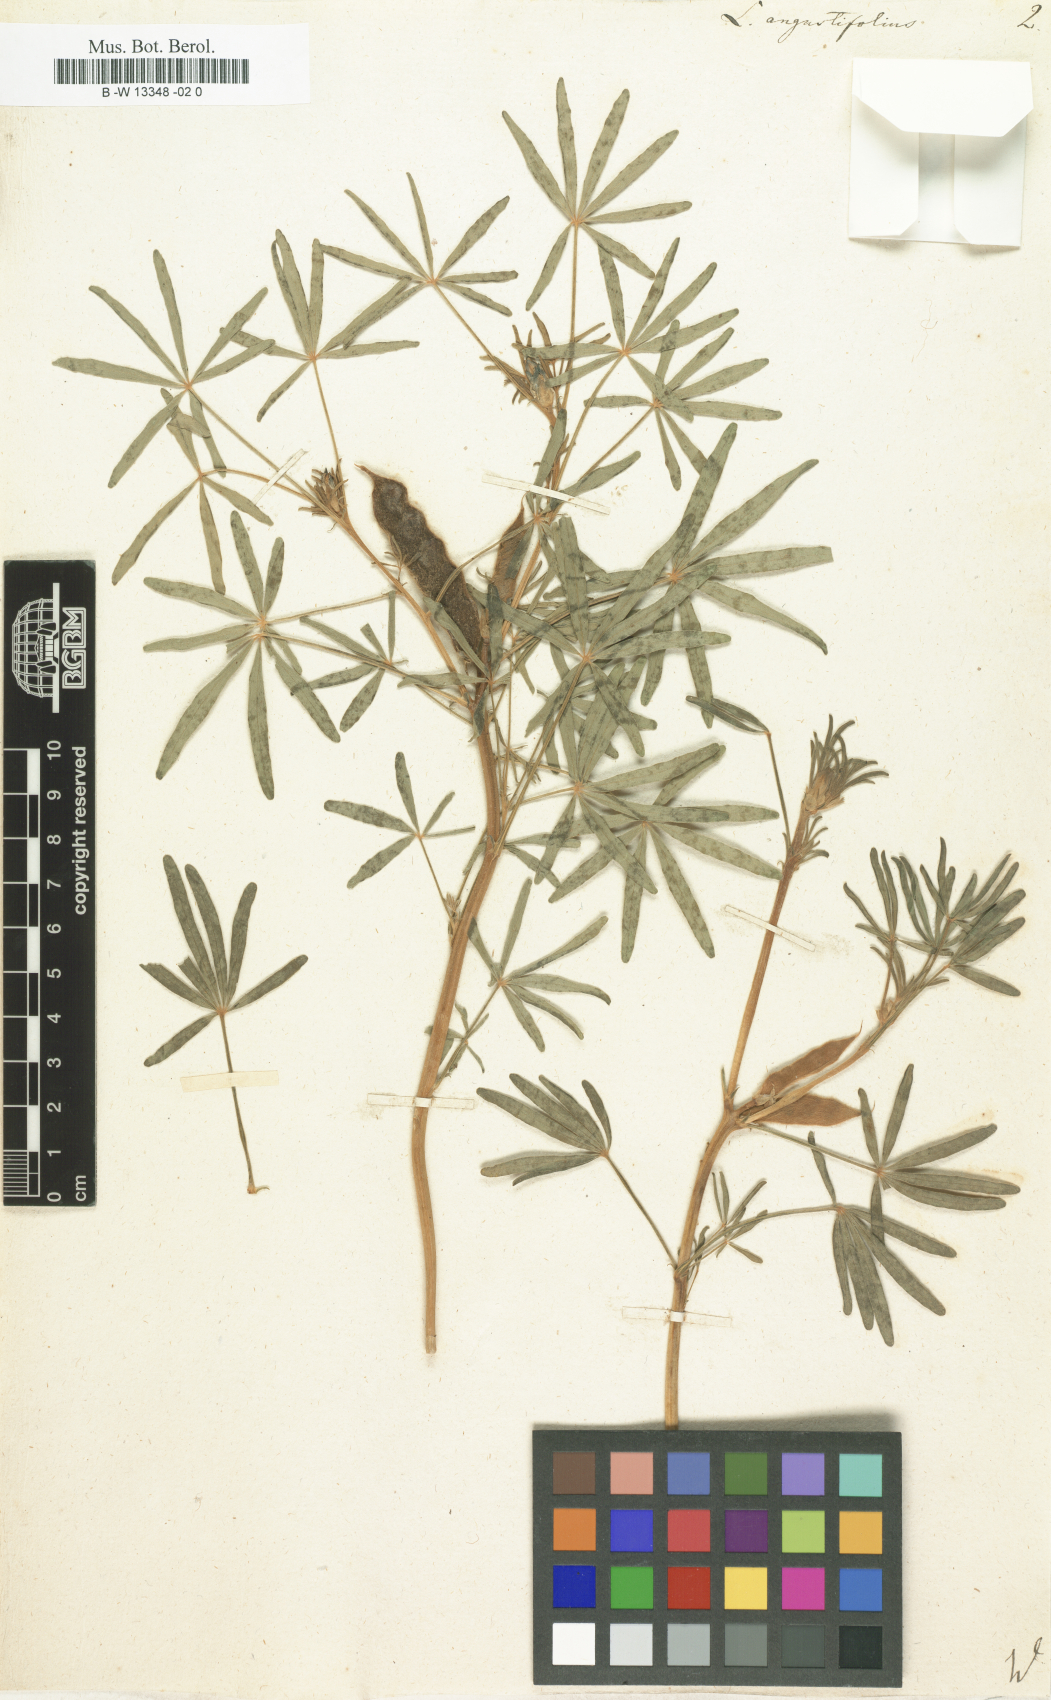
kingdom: Plantae
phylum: Tracheophyta
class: Magnoliopsida
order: Fabales
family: Fabaceae
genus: Lupinus
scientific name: Lupinus angustifolius
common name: Narrow-leaved lupin
